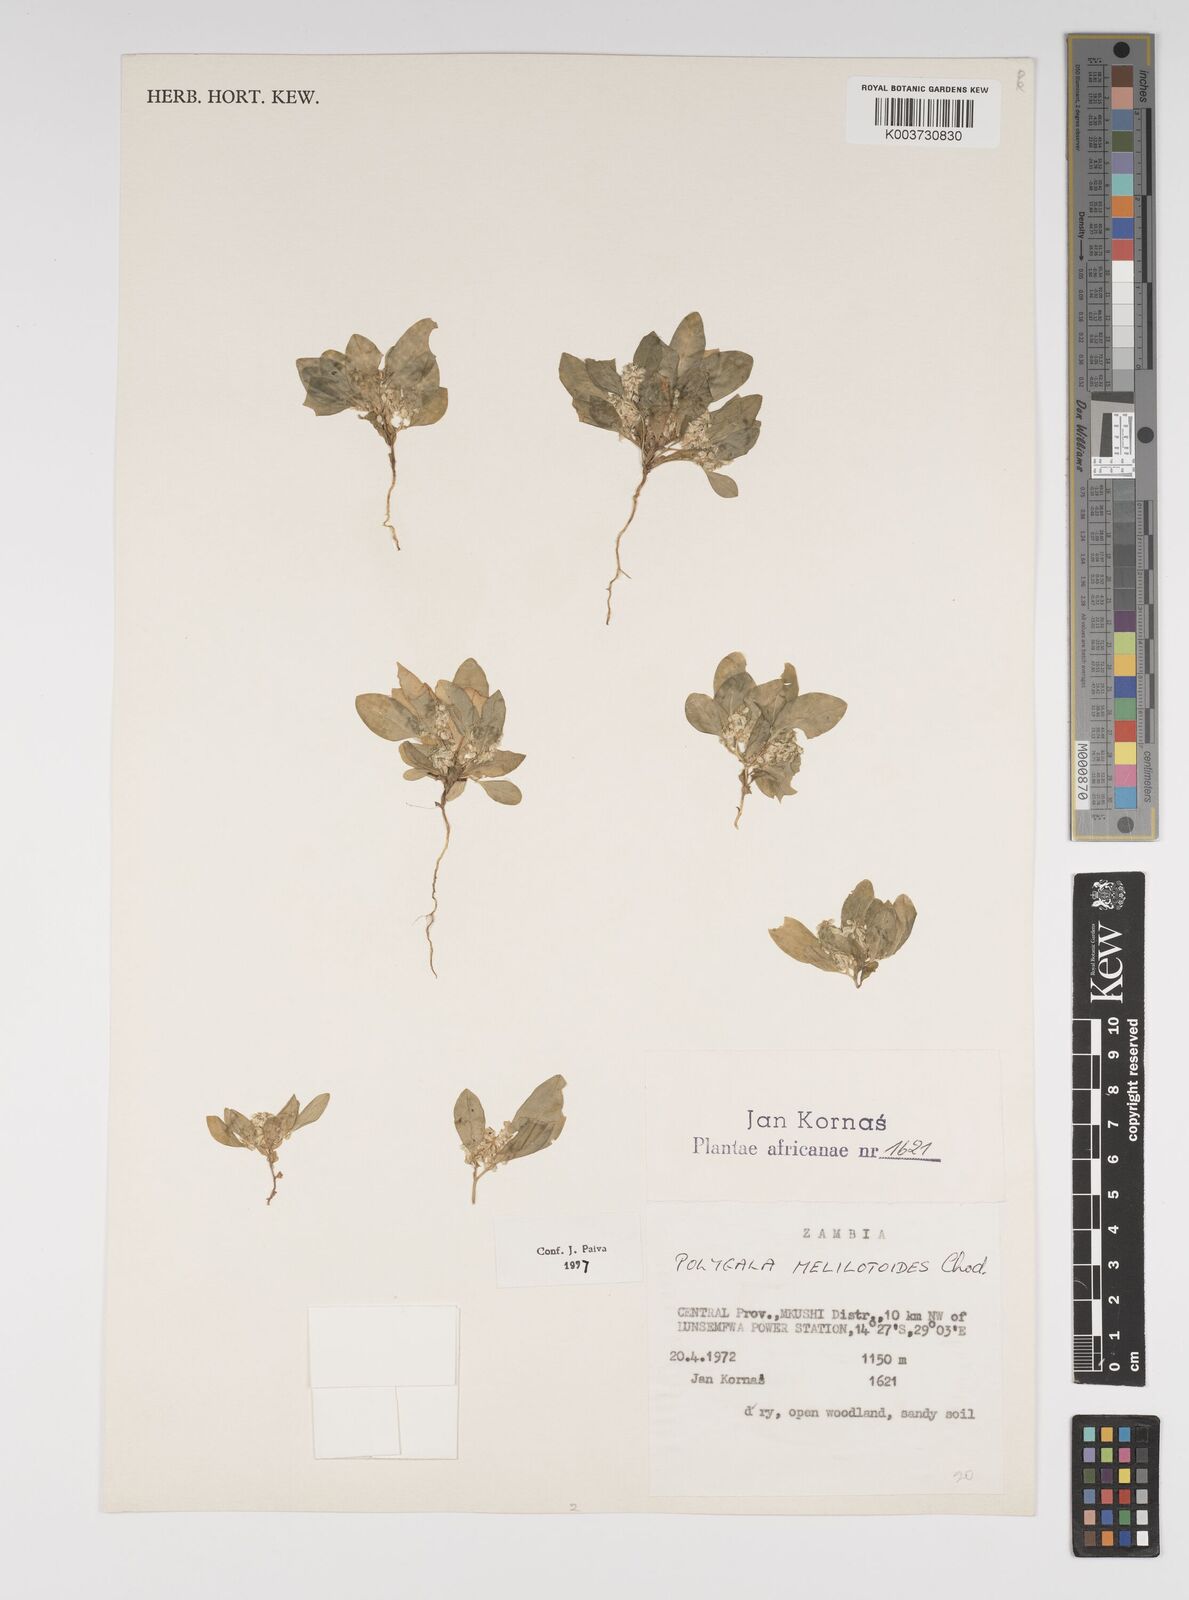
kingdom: Plantae
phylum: Tracheophyta
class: Magnoliopsida
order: Fabales
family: Polygalaceae
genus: Polygala
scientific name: Polygala melilotoides
